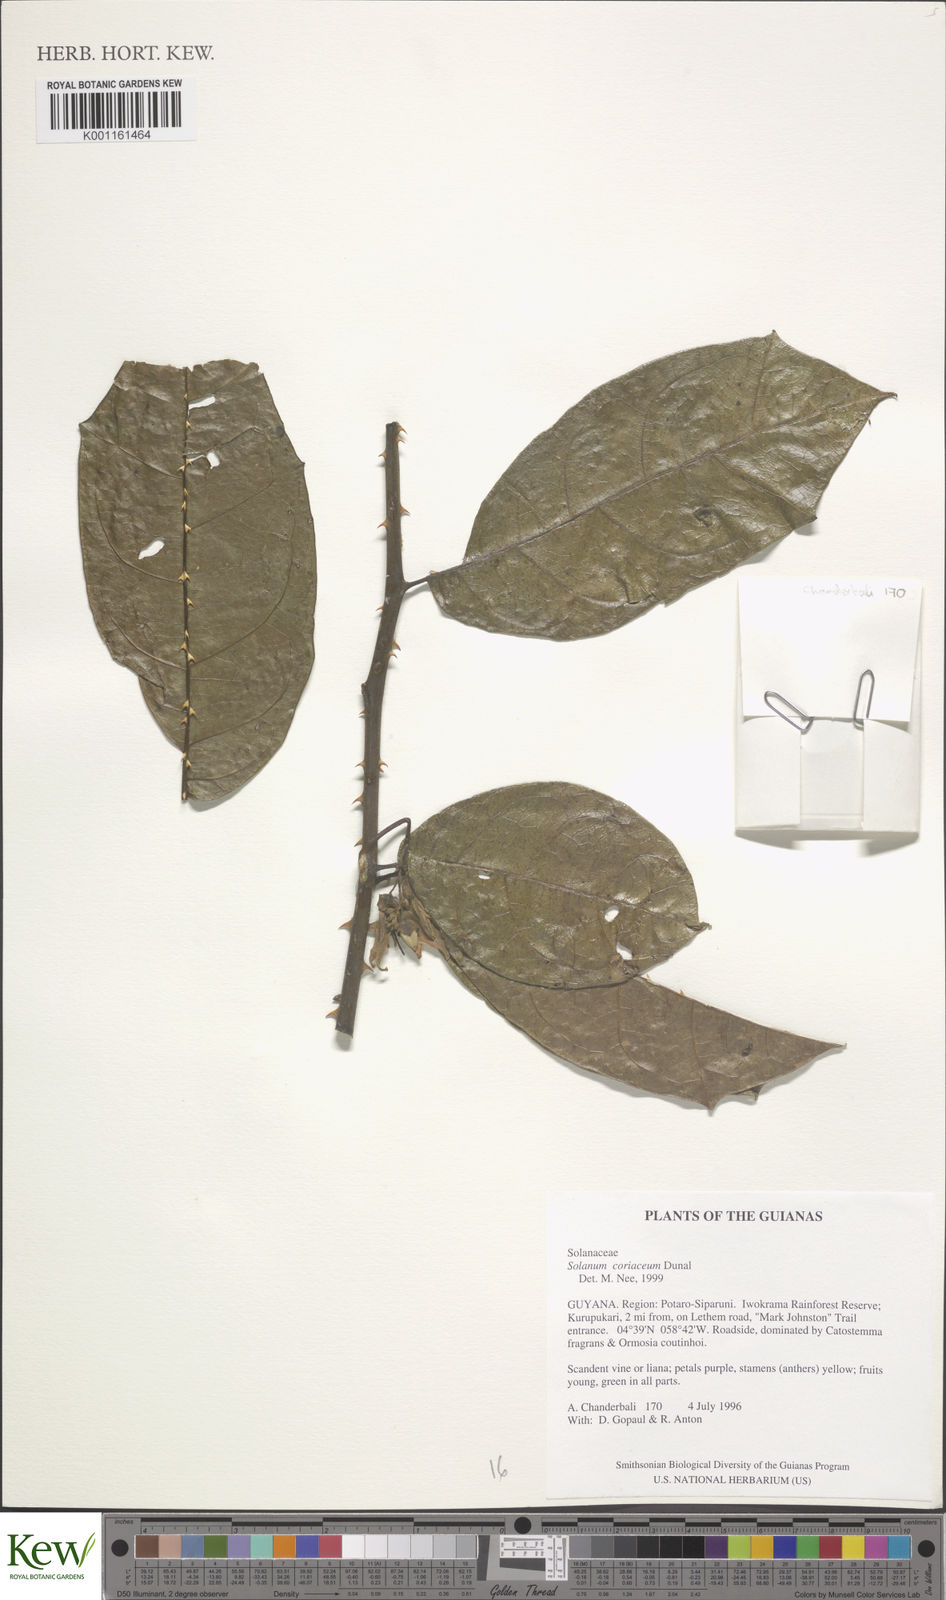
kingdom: Plantae
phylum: Tracheophyta
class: Magnoliopsida
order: Solanales
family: Solanaceae
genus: Solanum
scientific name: Solanum coriaceum
